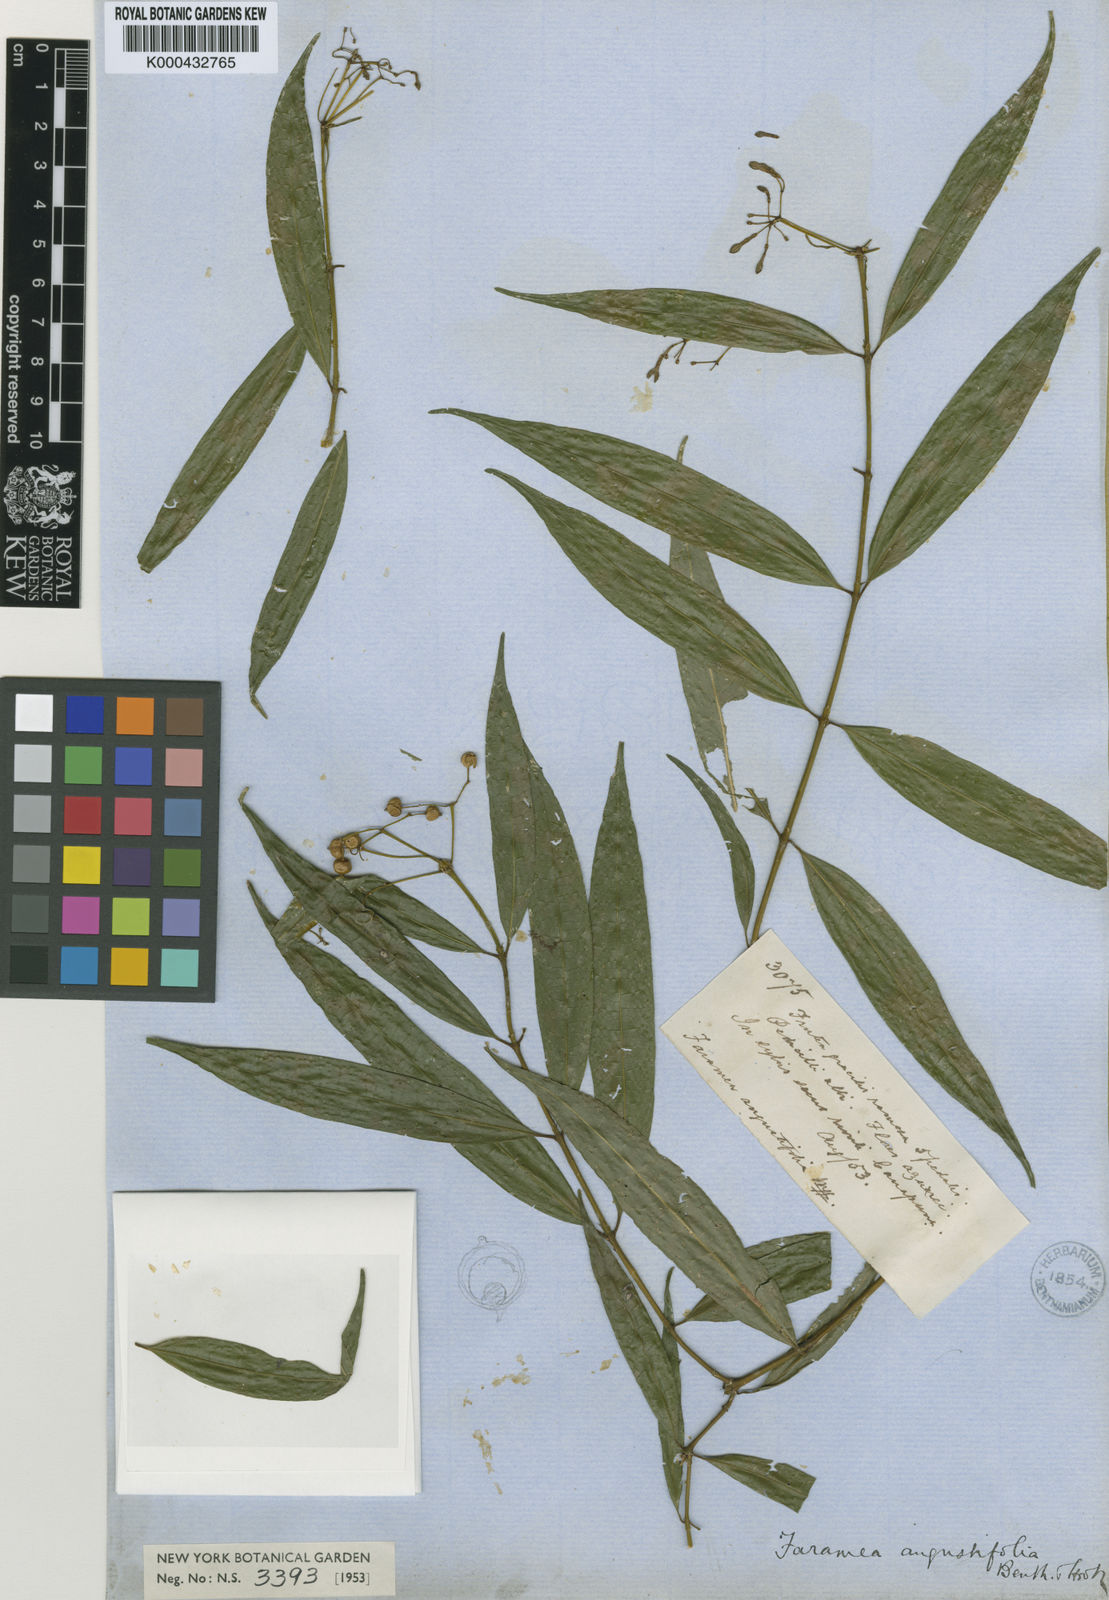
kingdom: Plantae
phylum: Tracheophyta
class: Magnoliopsida
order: Gentianales
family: Rubiaceae
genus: Faramea
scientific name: Faramea
